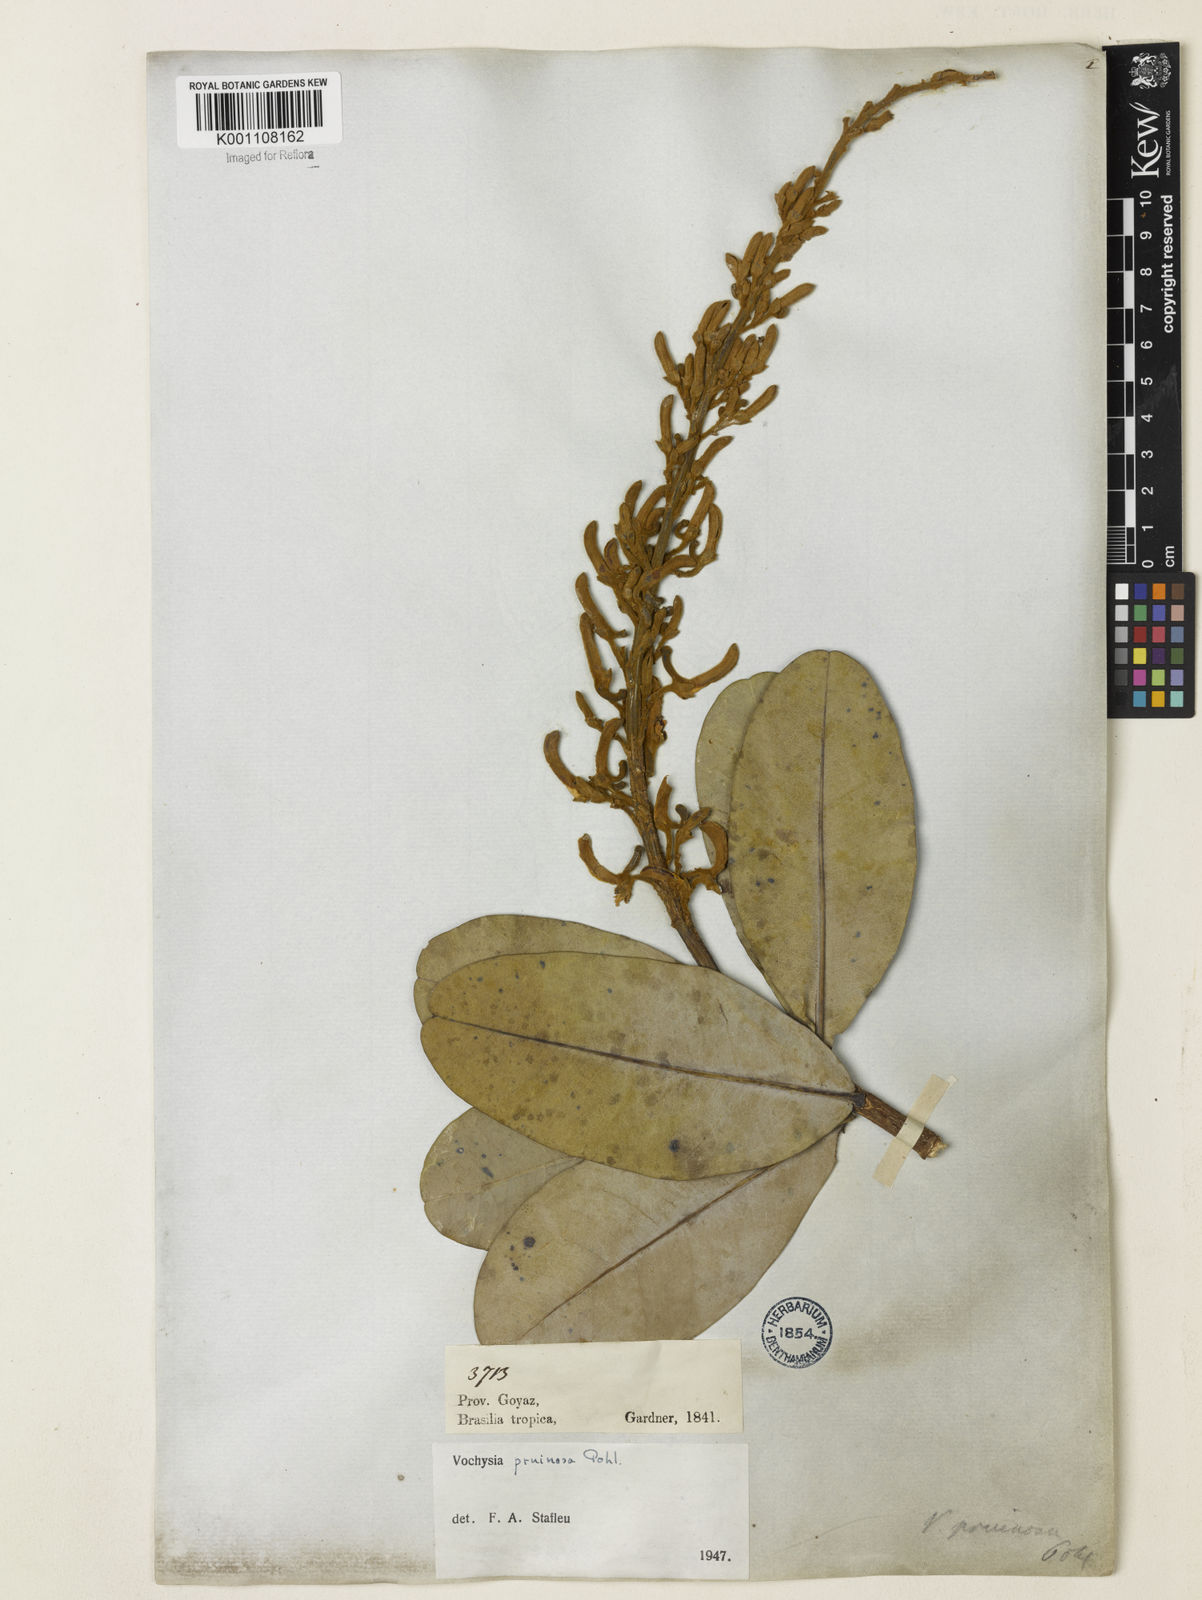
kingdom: Plantae
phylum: Tracheophyta
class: Magnoliopsida
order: Myrtales
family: Vochysiaceae
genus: Vochysia
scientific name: Vochysia pruinosa
